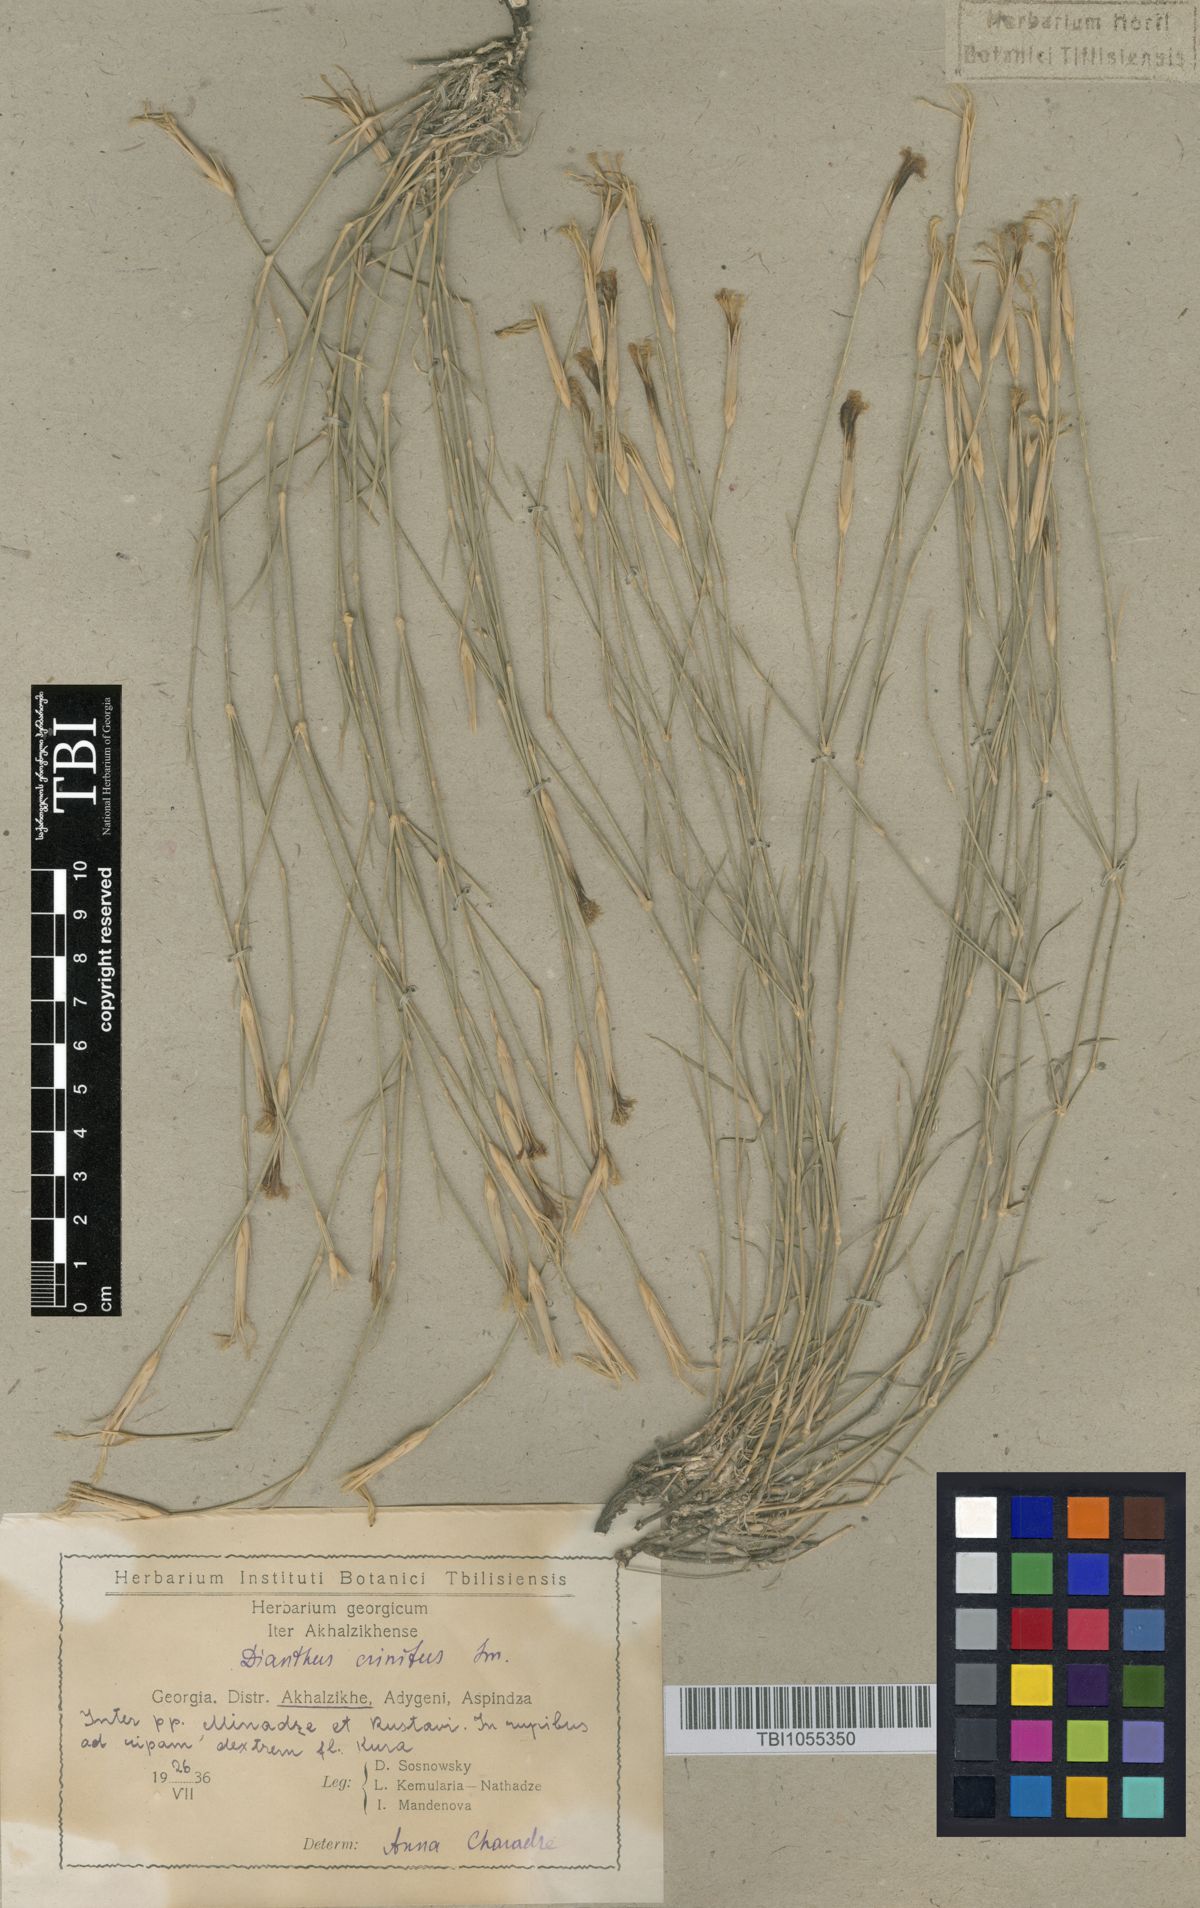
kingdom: Plantae
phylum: Tracheophyta
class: Magnoliopsida
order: Caryophyllales
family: Caryophyllaceae
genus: Dianthus
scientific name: Dianthus crinitus
